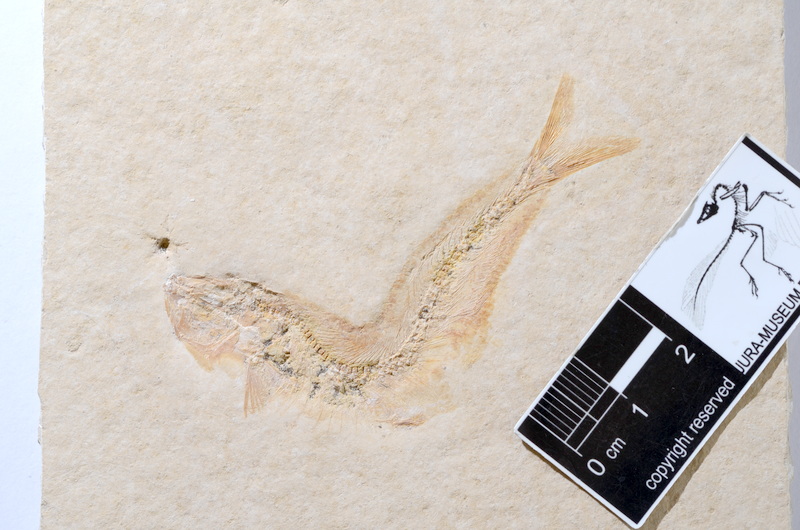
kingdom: Animalia
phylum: Chordata
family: Allothrissopidae
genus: Allothrissops
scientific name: Allothrissops mesogaster
